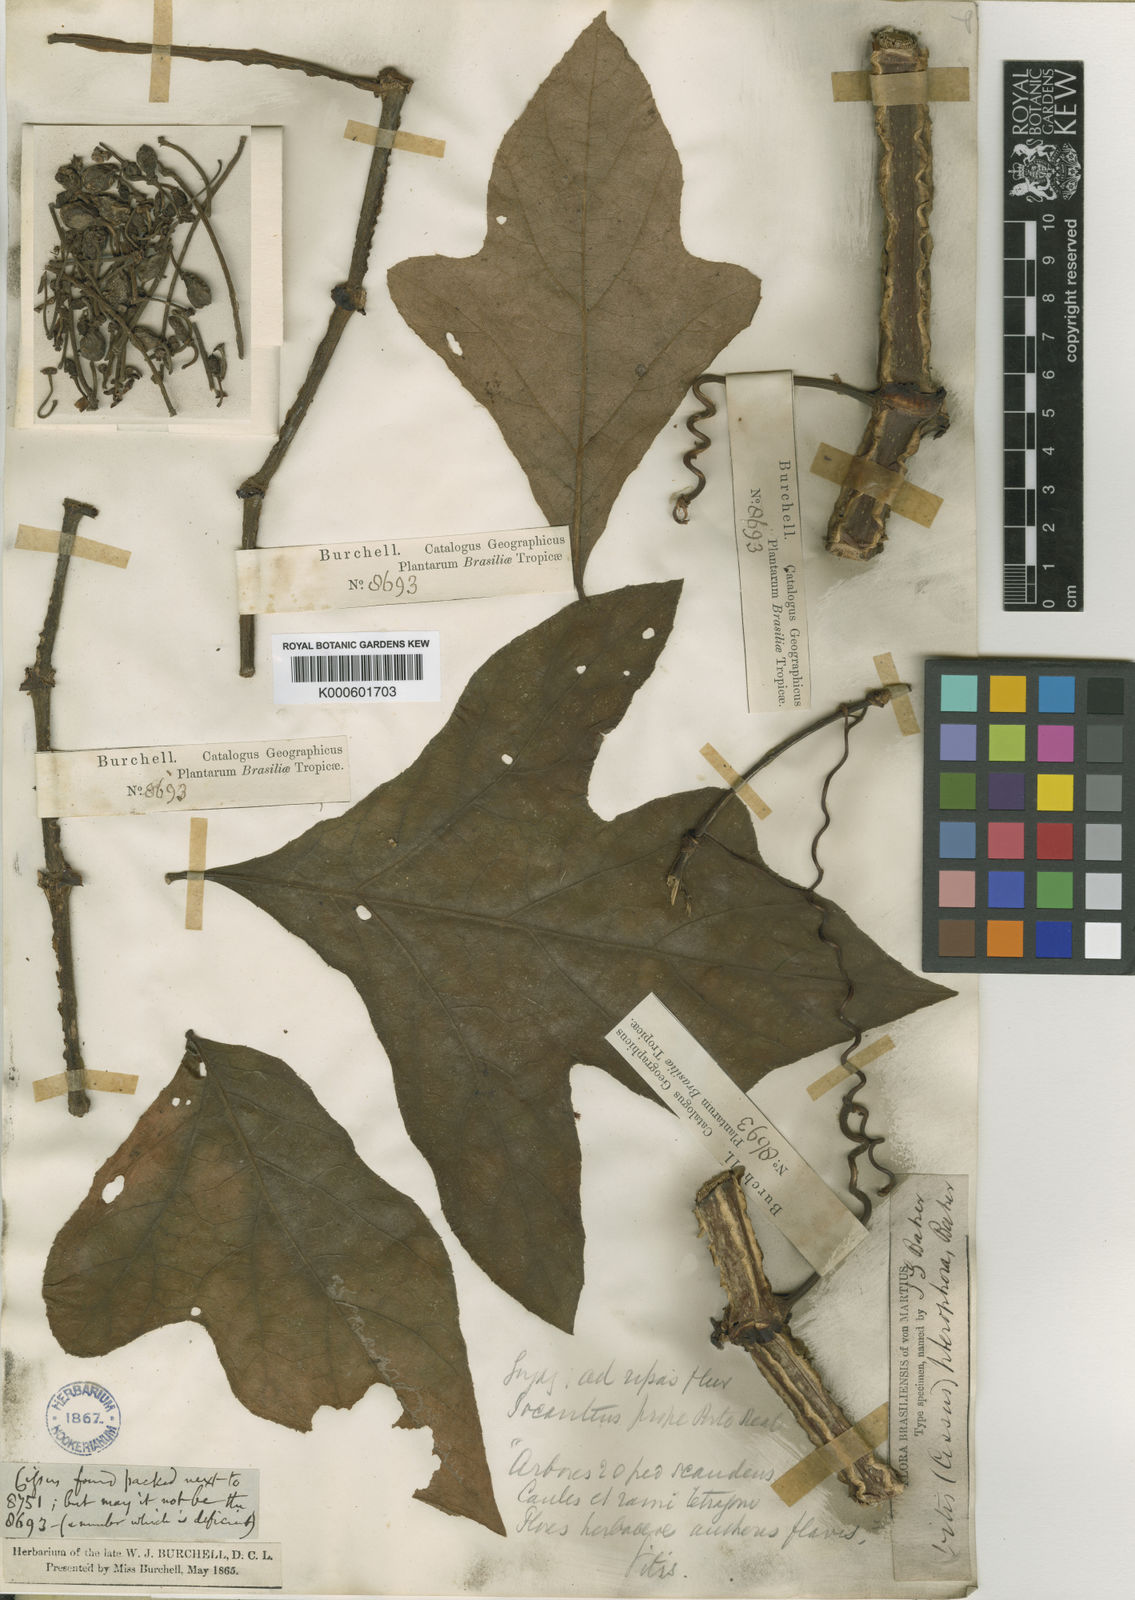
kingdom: Plantae
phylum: Tracheophyta
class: Magnoliopsida
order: Vitales
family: Vitaceae
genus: Cissus
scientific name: Cissus sulcicaulis
